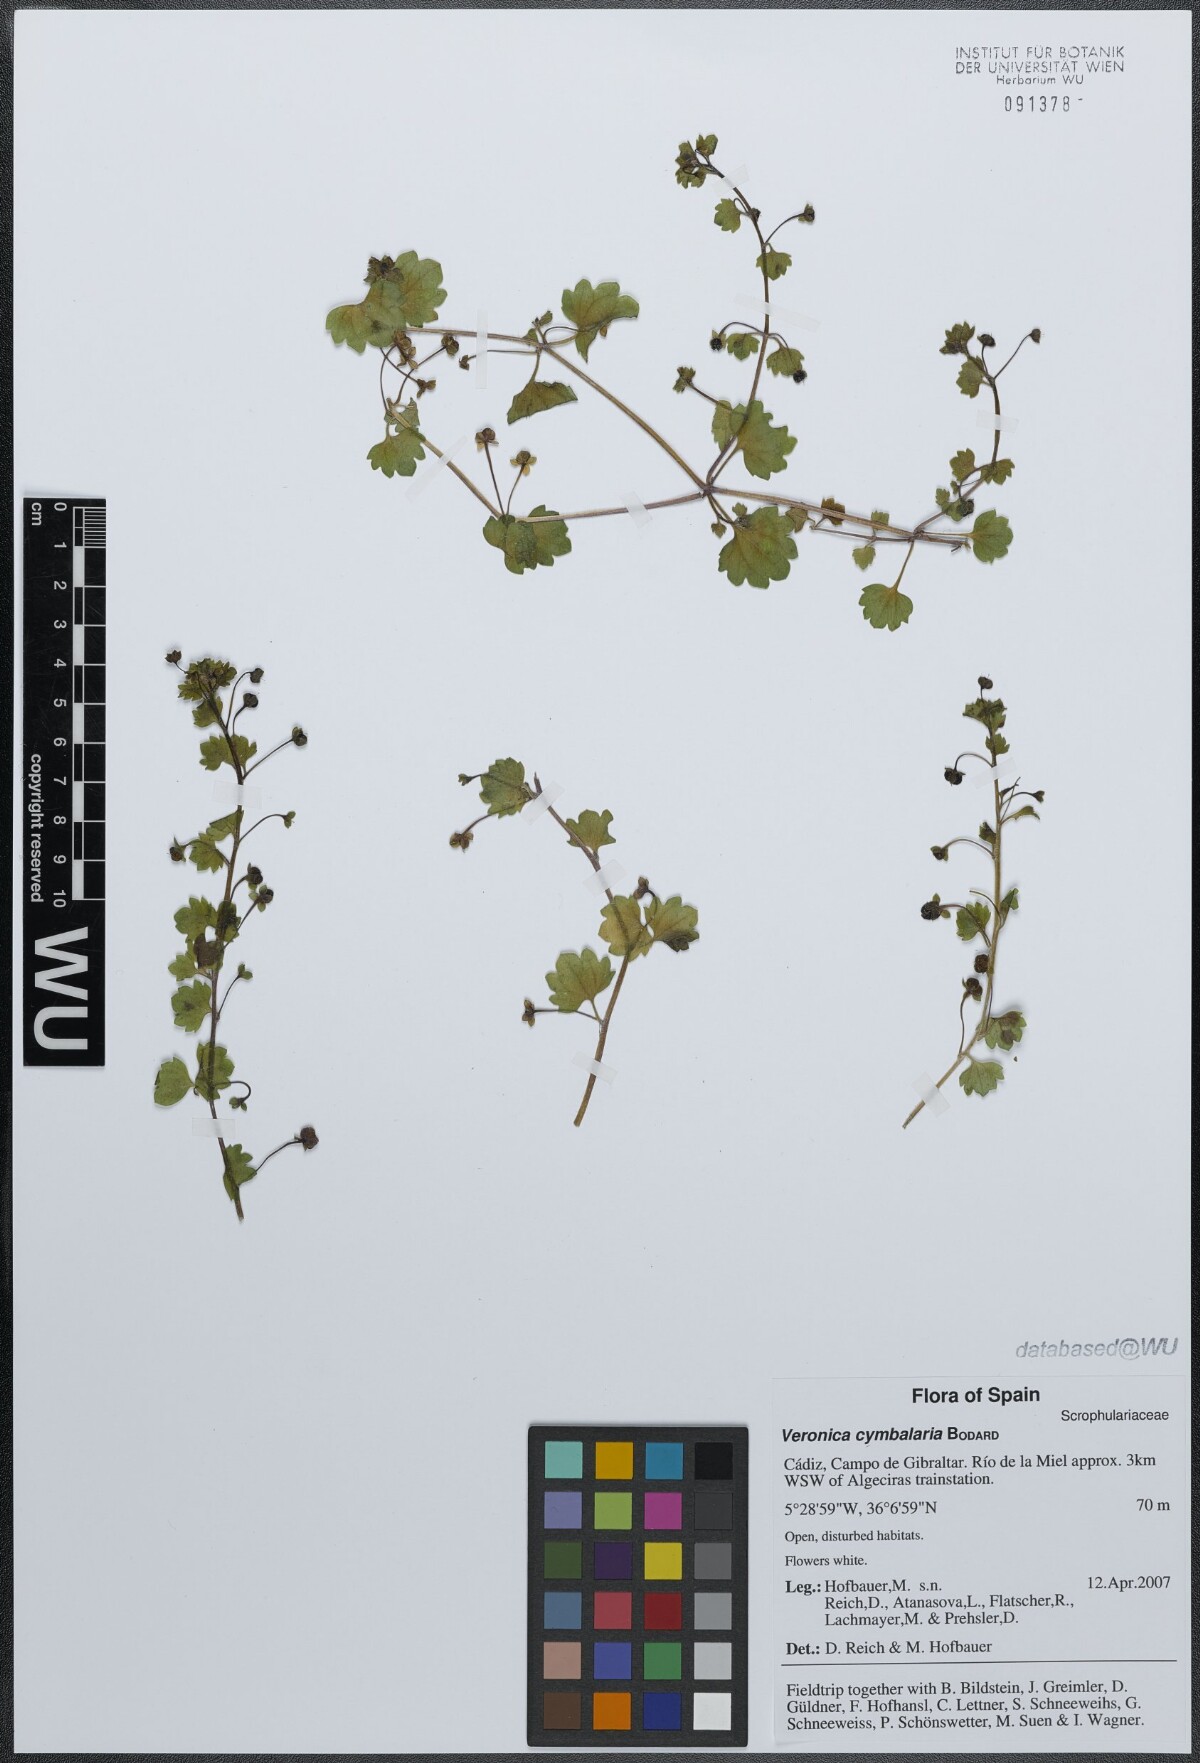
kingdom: Plantae
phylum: Tracheophyta
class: Magnoliopsida
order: Lamiales
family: Plantaginaceae
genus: Veronica
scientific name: Veronica cymbalaria
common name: Pale speedwell
